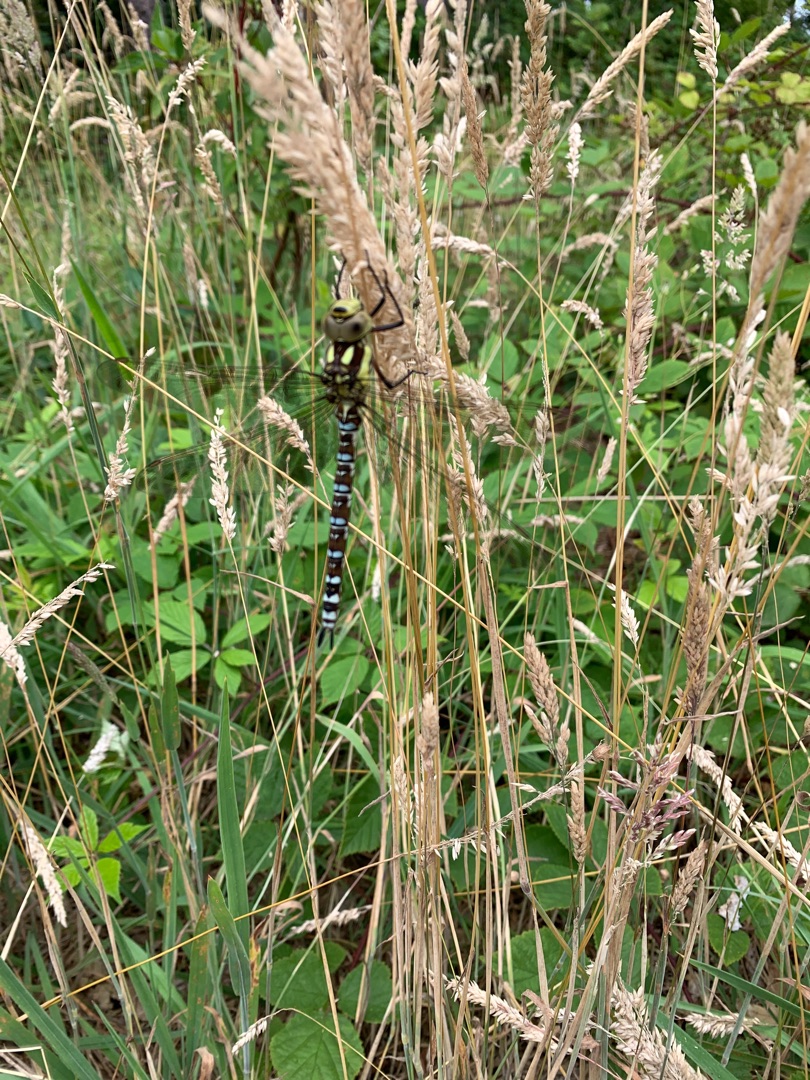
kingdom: Animalia
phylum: Arthropoda
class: Insecta
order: Odonata
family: Aeshnidae
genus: Aeshna
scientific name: Aeshna cyanea
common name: Blå mosaikguldsmed
